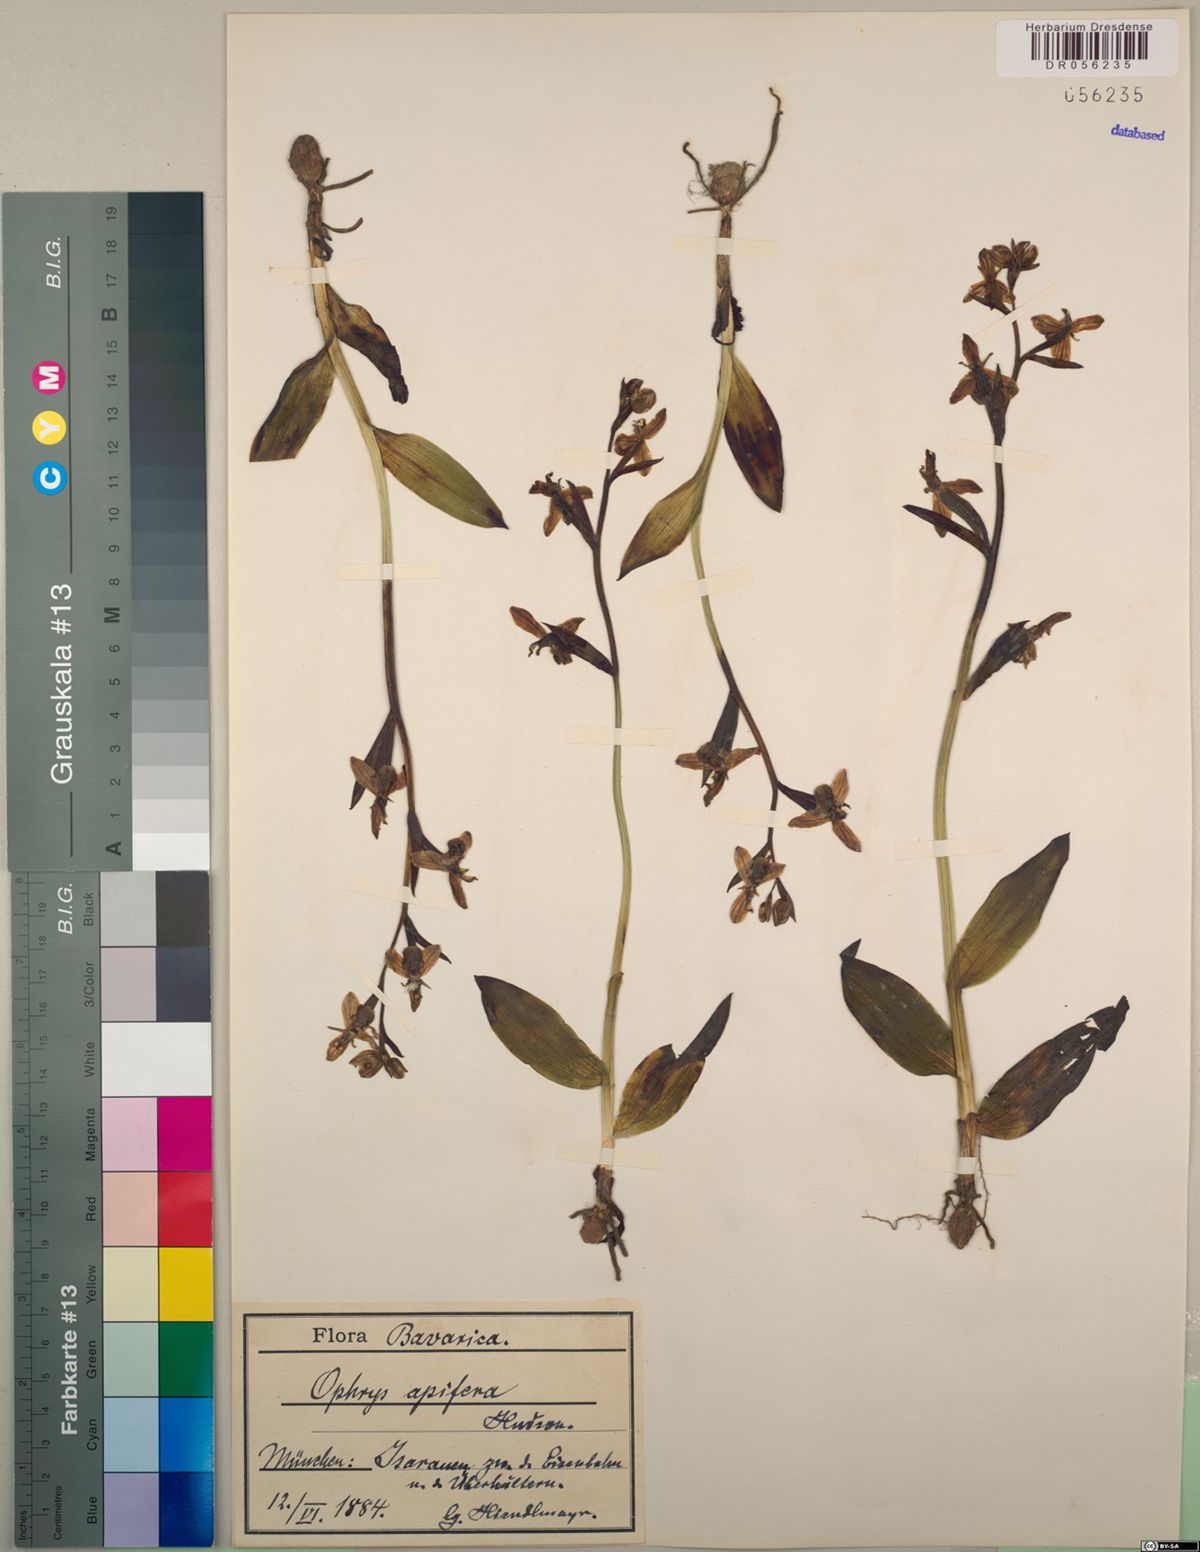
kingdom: Plantae
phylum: Tracheophyta
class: Liliopsida
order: Asparagales
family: Orchidaceae
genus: Ophrys
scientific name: Ophrys apifera
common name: Bee orchid
